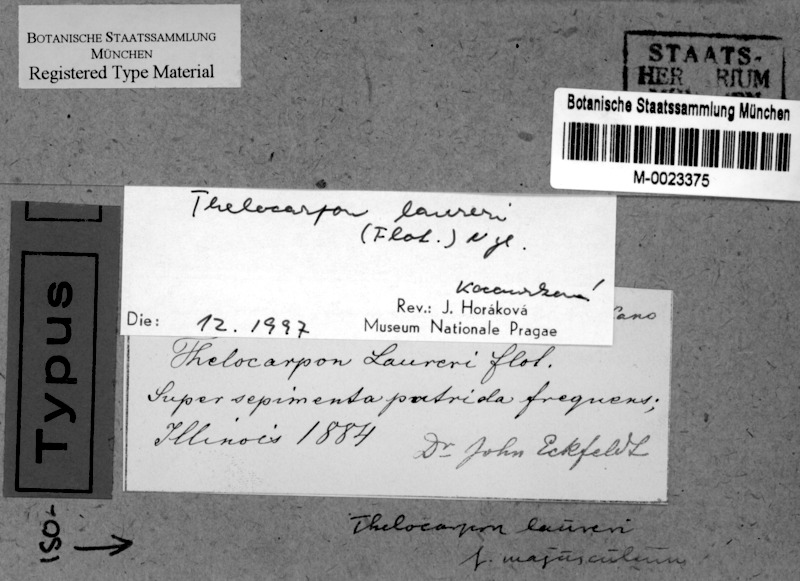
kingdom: Fungi
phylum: Ascomycota
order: Thelocarpales
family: Thelocarpaceae
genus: Thelocarpon
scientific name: Thelocarpon laureri
